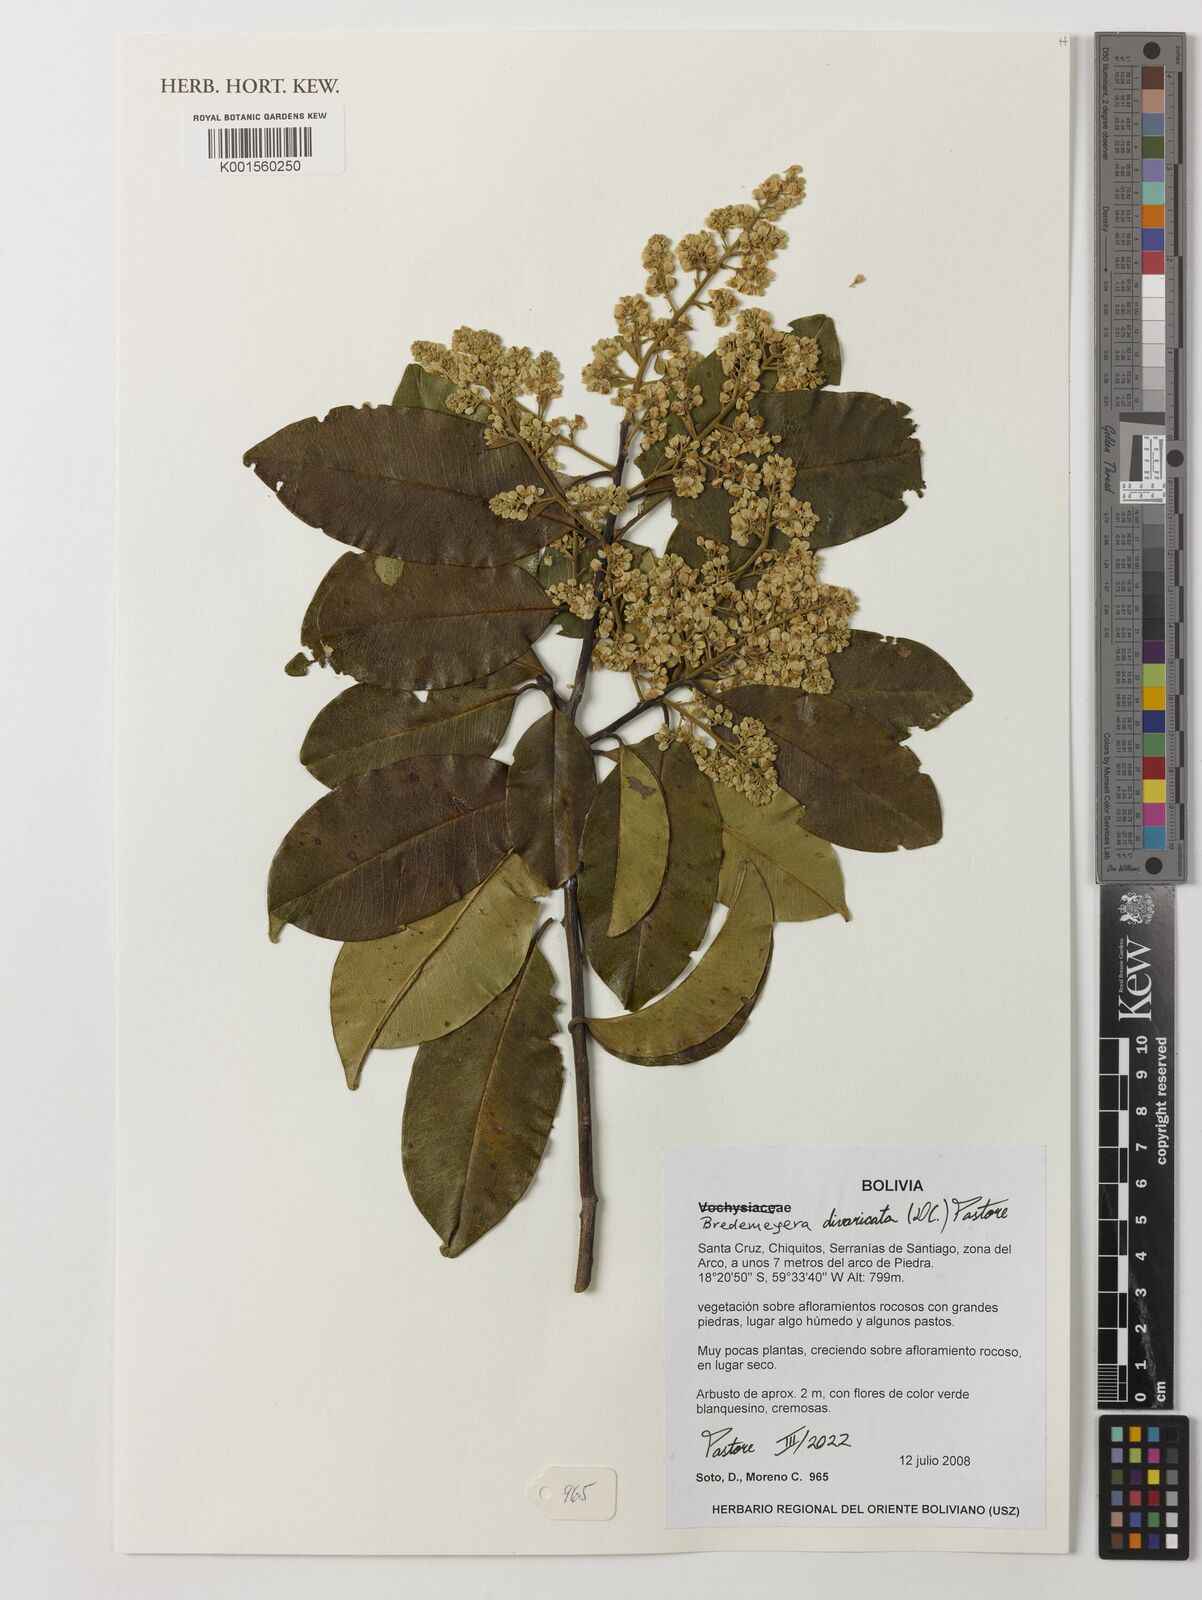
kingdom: Plantae
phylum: Tracheophyta
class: Magnoliopsida
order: Fabales
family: Polygalaceae
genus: Bredemeyera
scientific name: Bredemeyera divaricata
